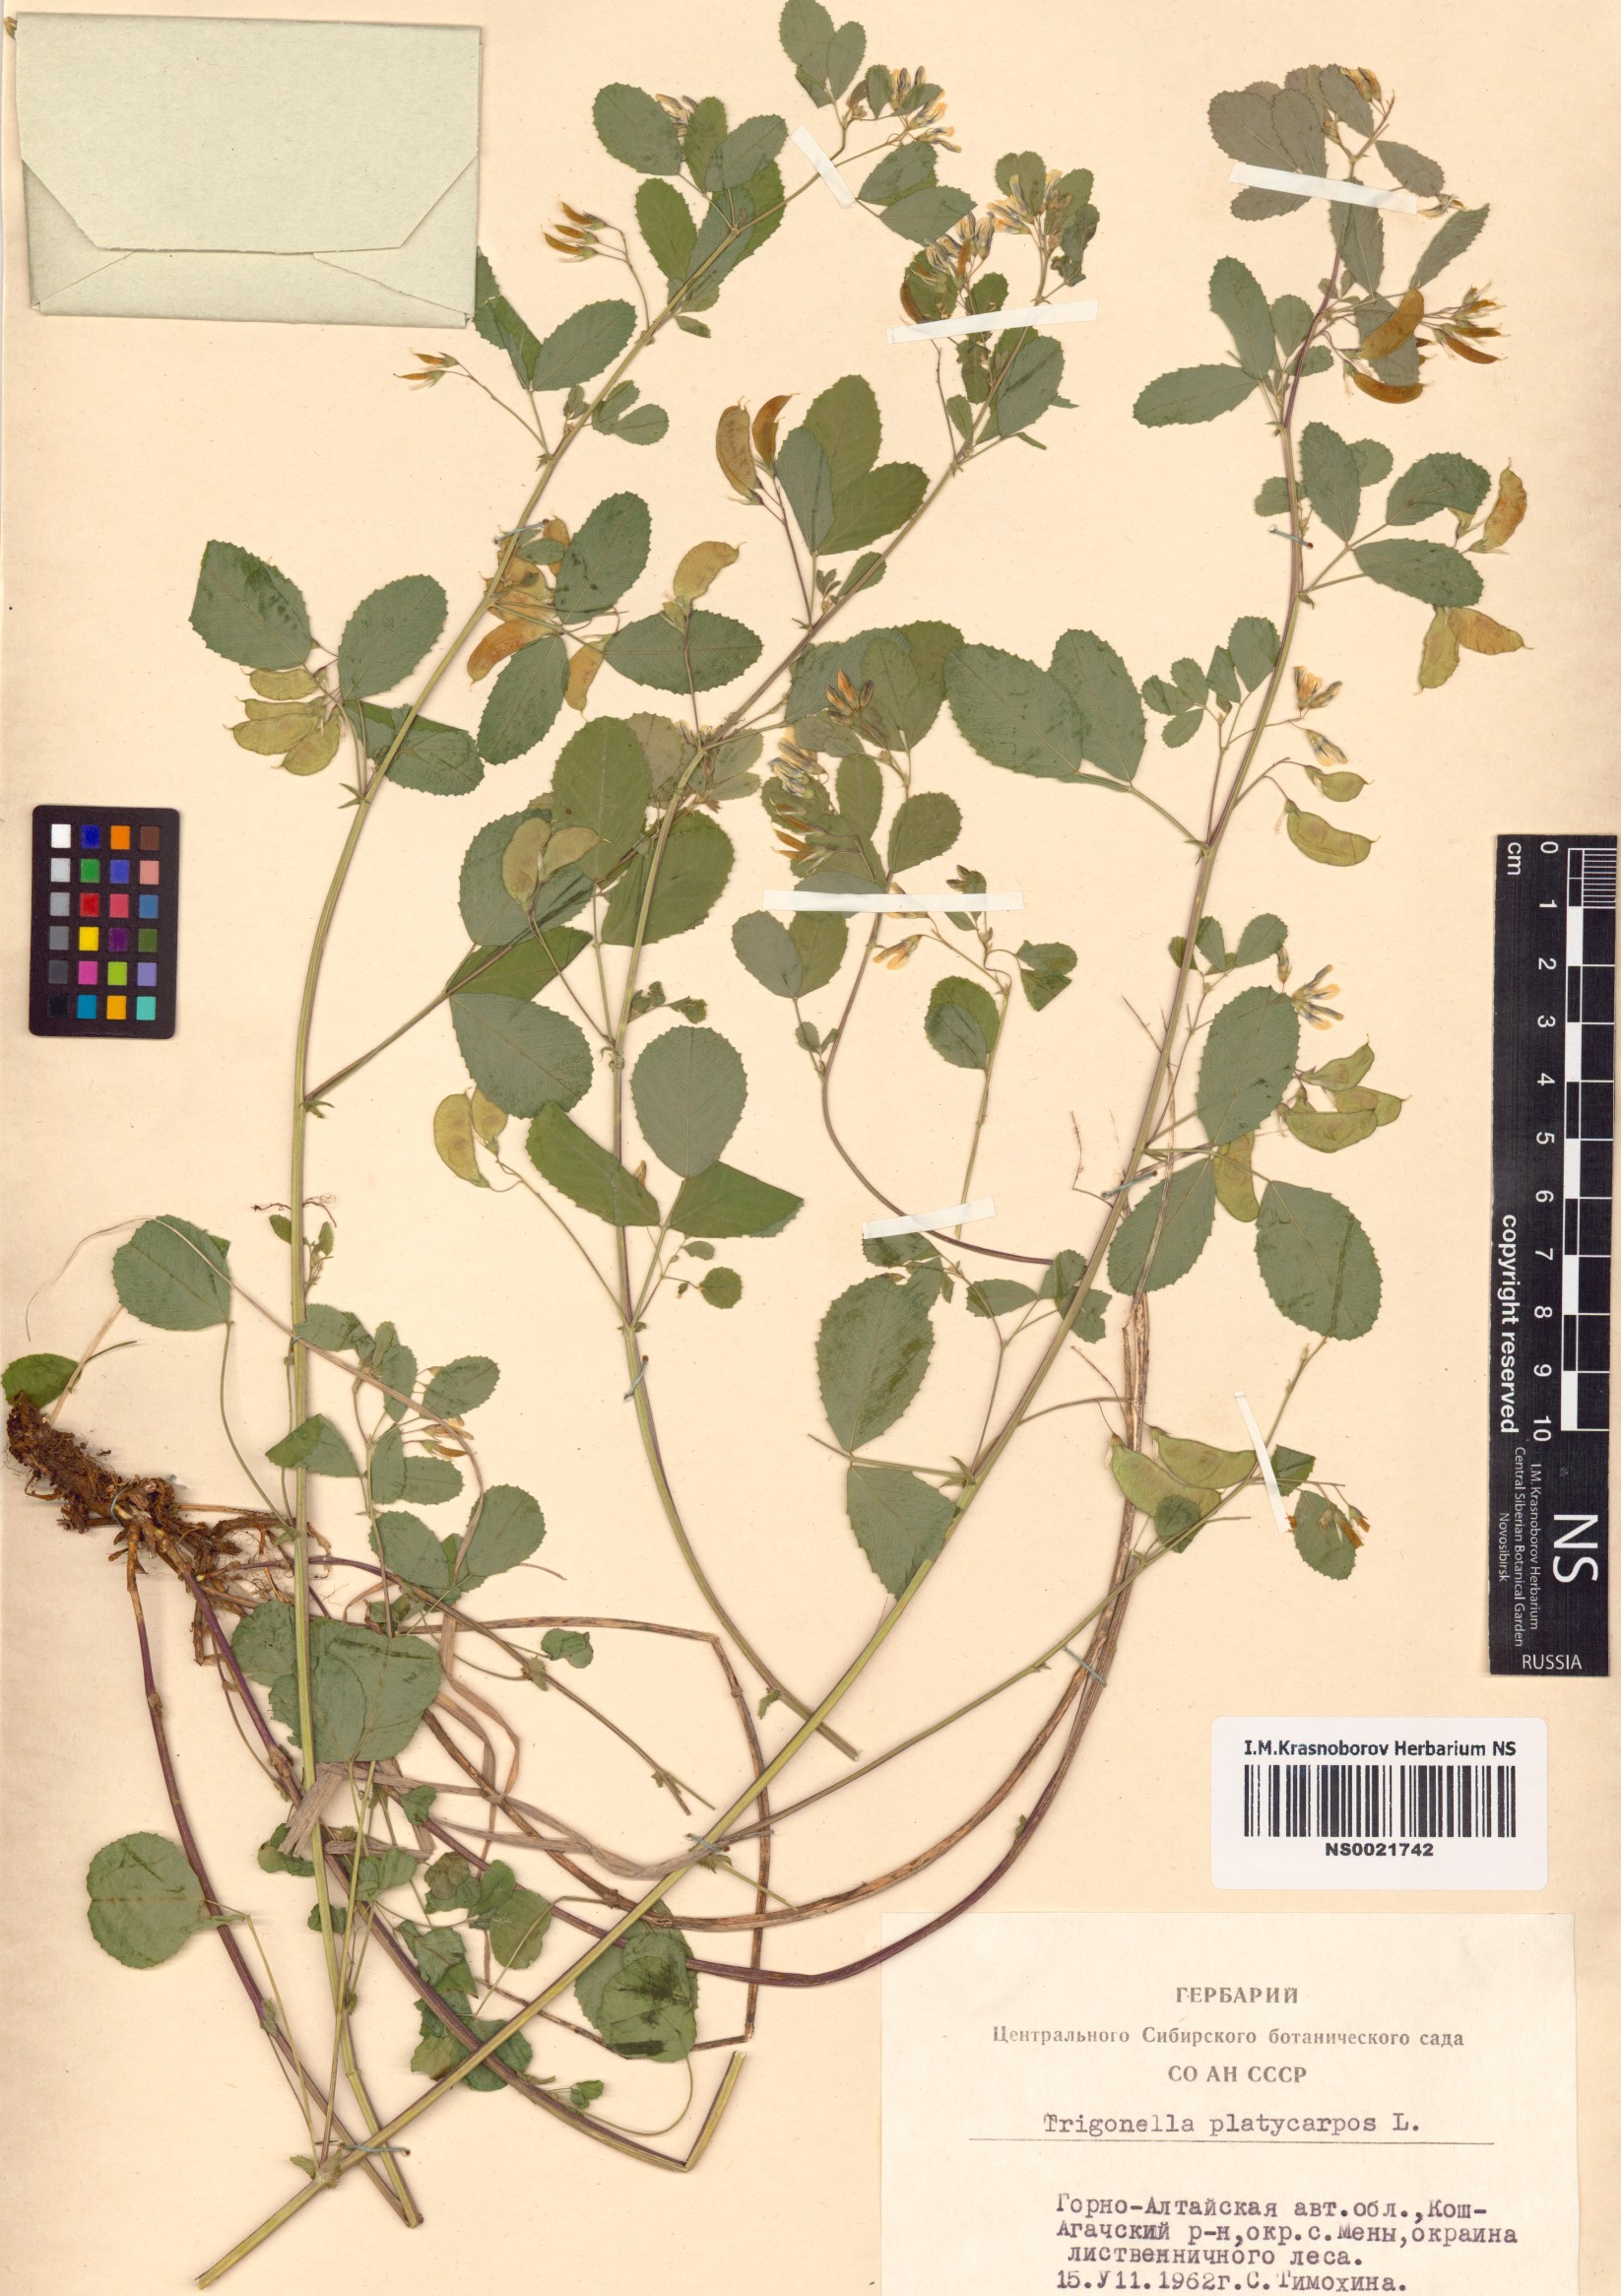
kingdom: Plantae
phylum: Tracheophyta
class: Magnoliopsida
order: Fabales
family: Fabaceae
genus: Medicago
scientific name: Medicago platycarpos
